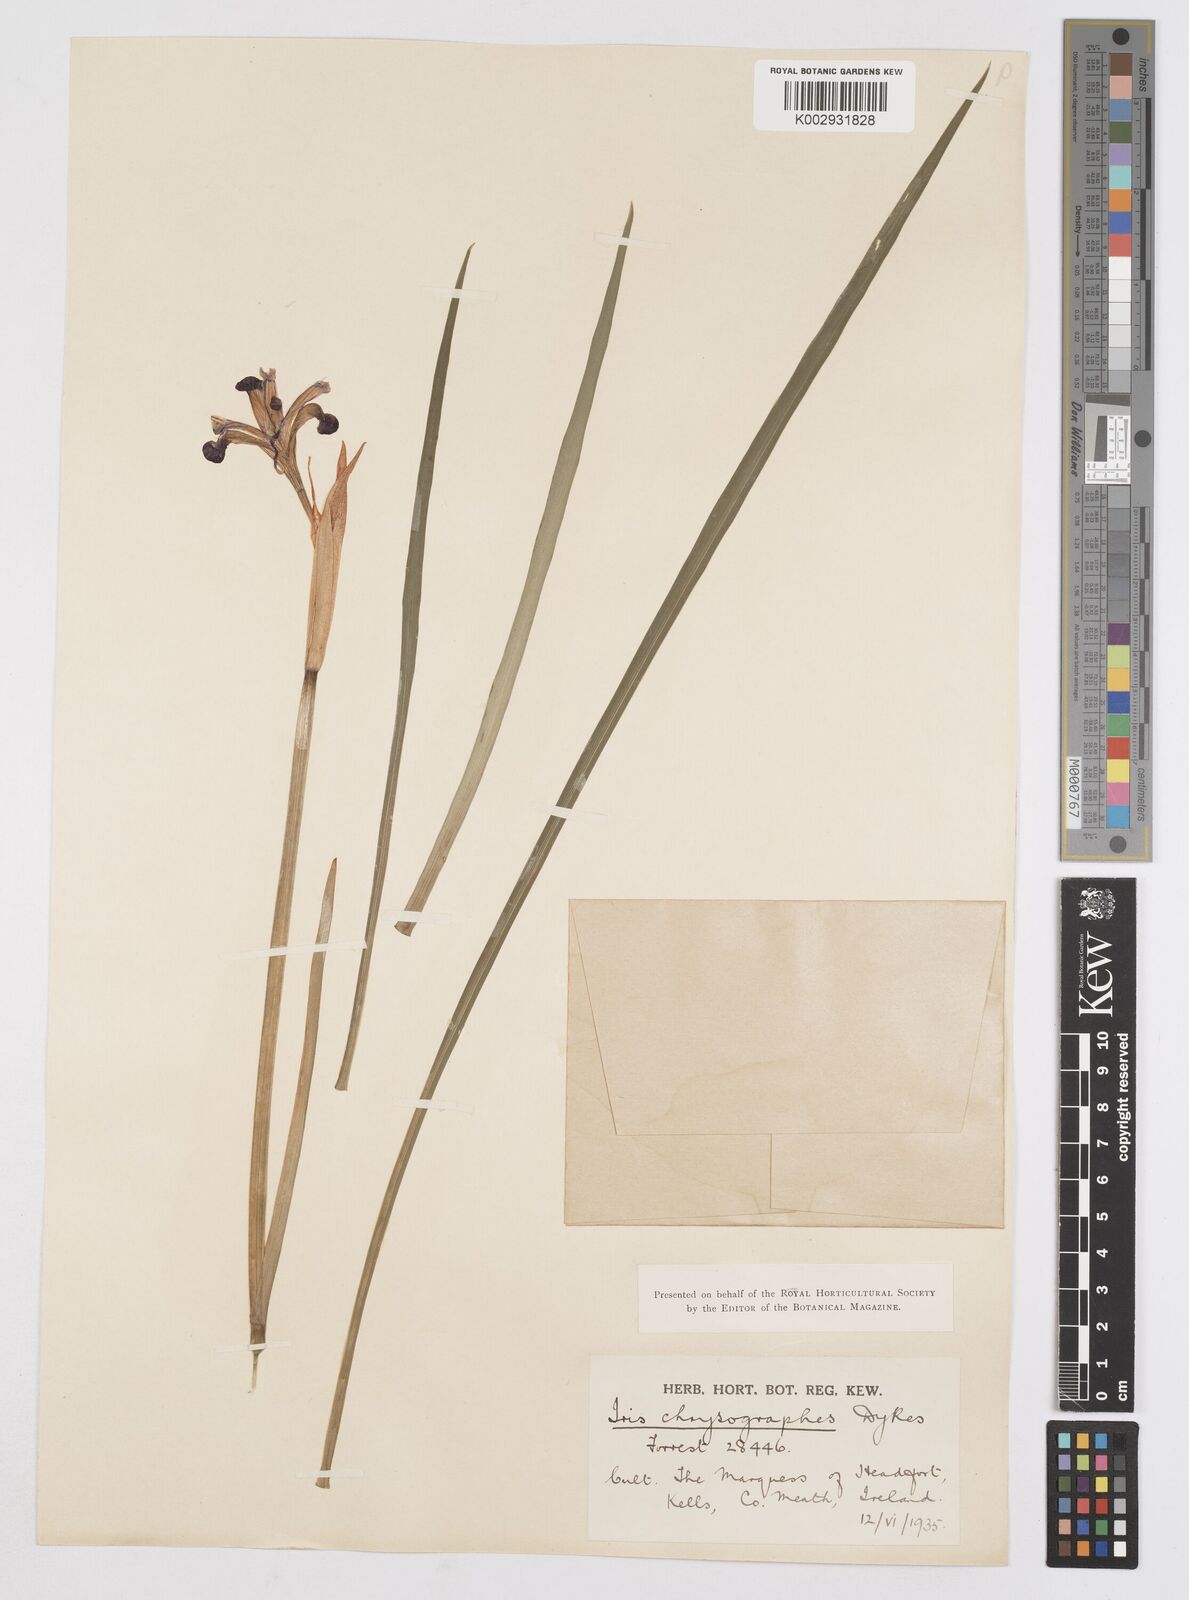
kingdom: Plantae
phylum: Tracheophyta
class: Liliopsida
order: Asparagales
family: Iridaceae
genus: Iris
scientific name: Iris chrysographes
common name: Gold-vein iris
